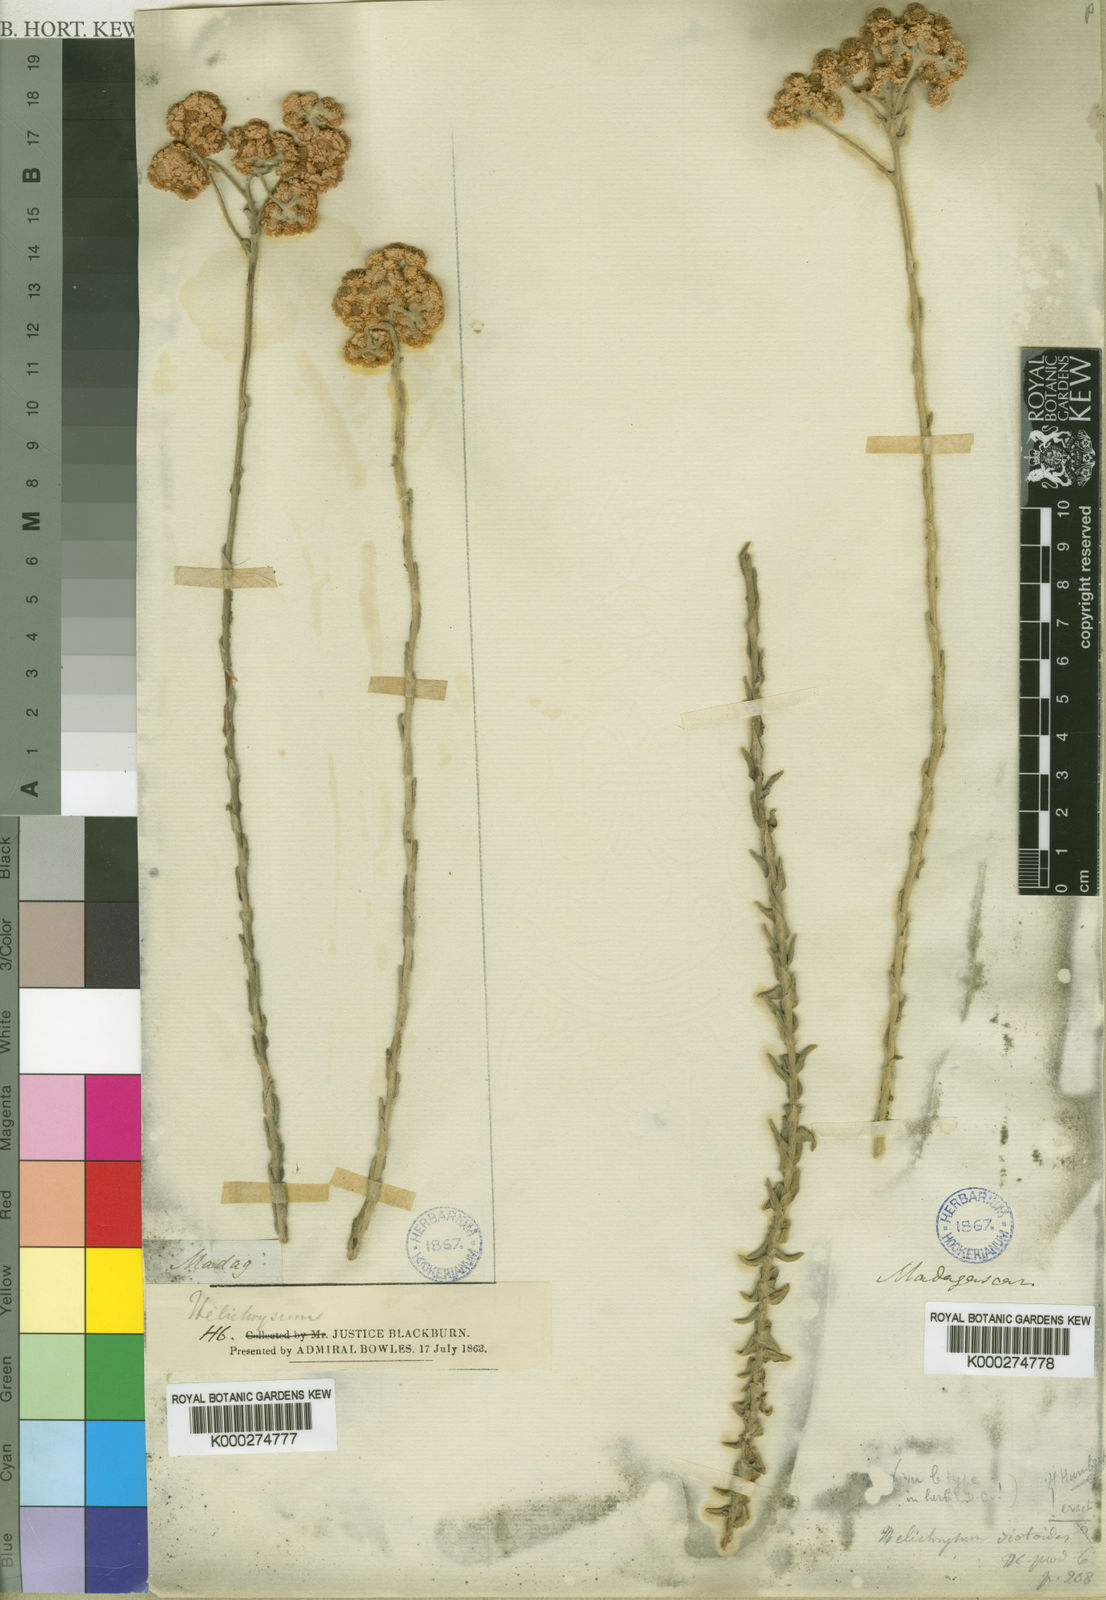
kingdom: Plantae
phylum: Tracheophyta
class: Magnoliopsida
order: Asterales
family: Asteraceae
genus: Helichrysum
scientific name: Helichrysum diotoides
